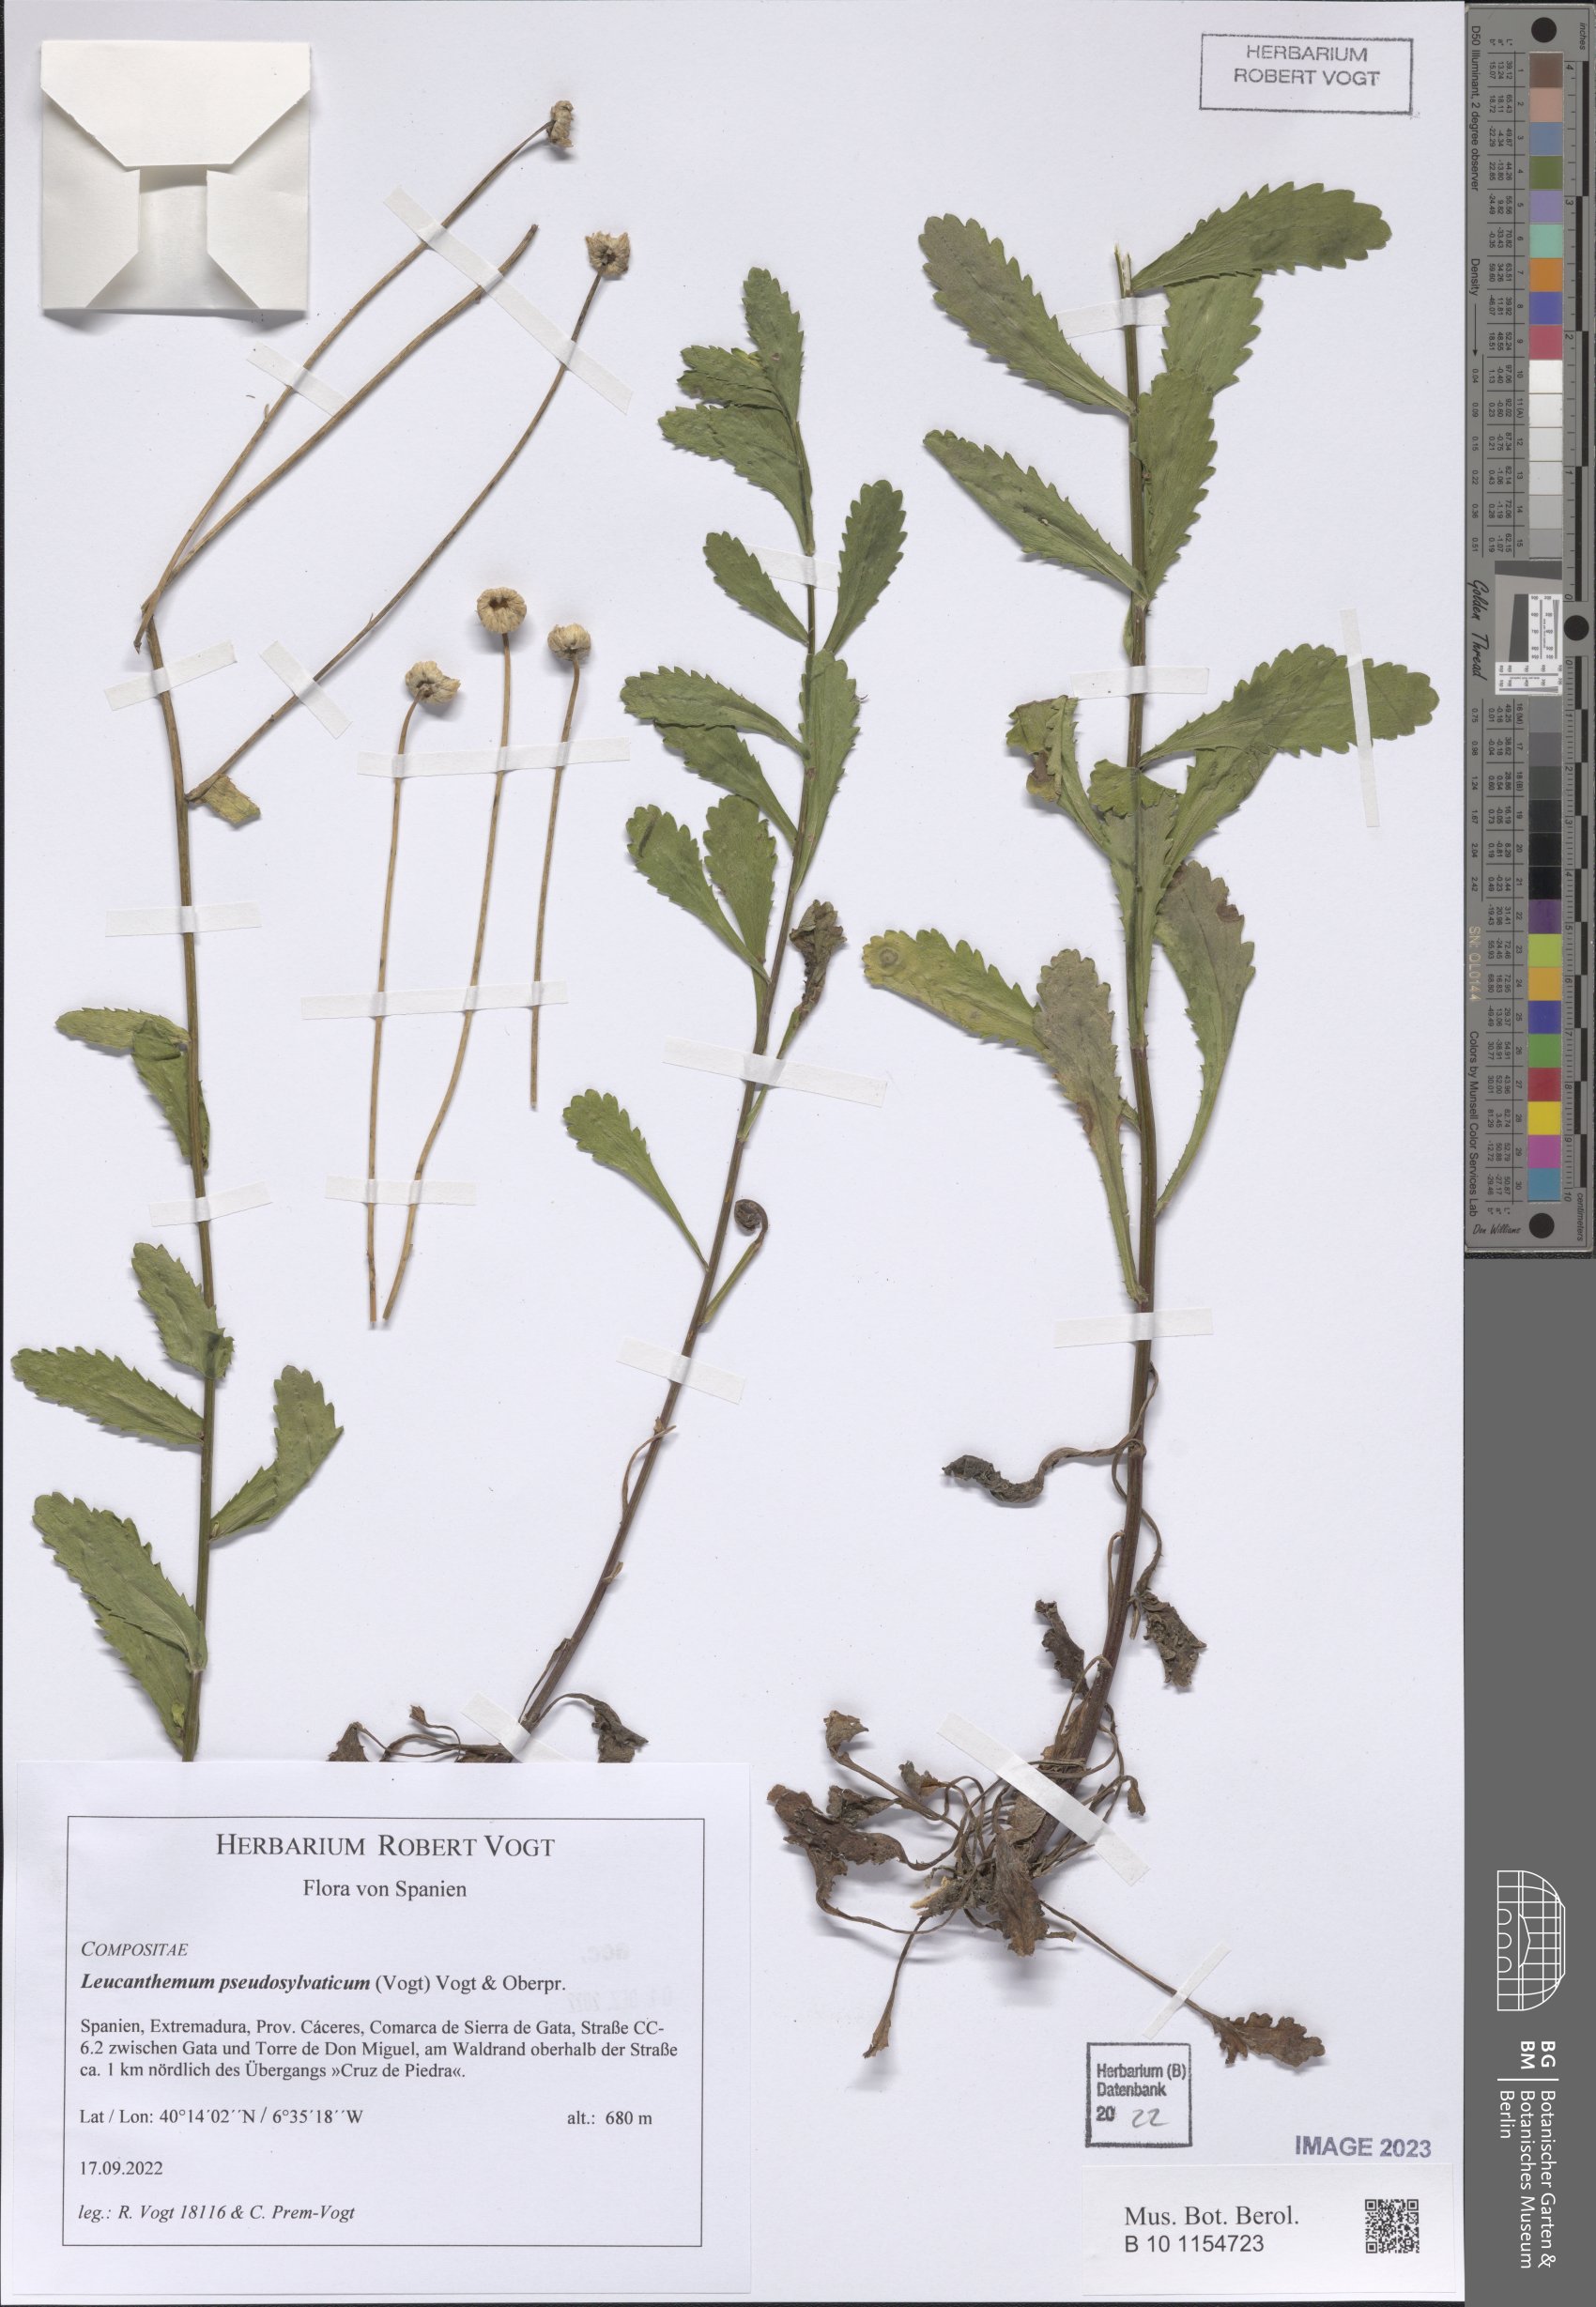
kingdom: Plantae
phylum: Tracheophyta
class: Magnoliopsida
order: Asterales
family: Asteraceae
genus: Leucanthemum
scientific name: Leucanthemum pseudosylvaticum
